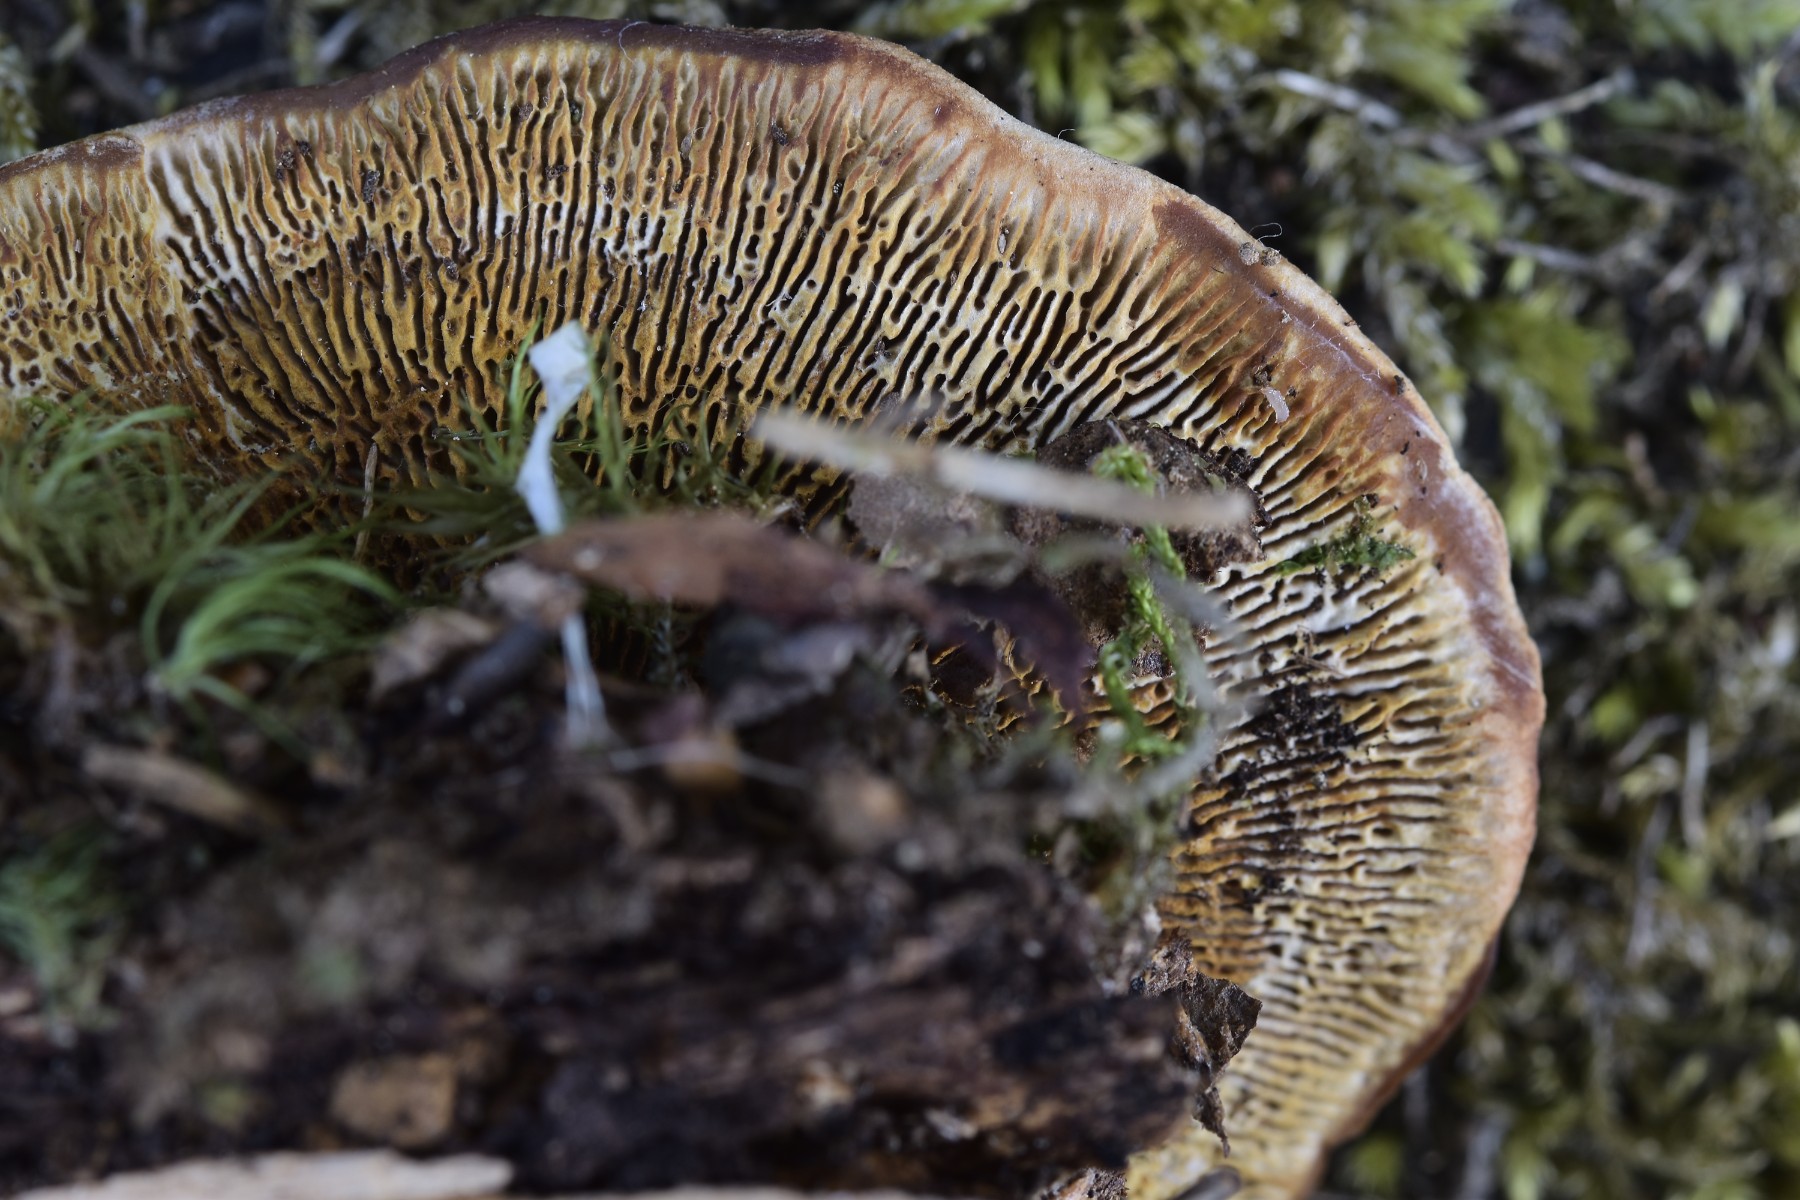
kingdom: Fungi
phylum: Basidiomycota
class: Agaricomycetes
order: Gloeophyllales
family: Gloeophyllaceae
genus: Gloeophyllum
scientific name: Gloeophyllum sepiarium
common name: fyrre-korkhat
